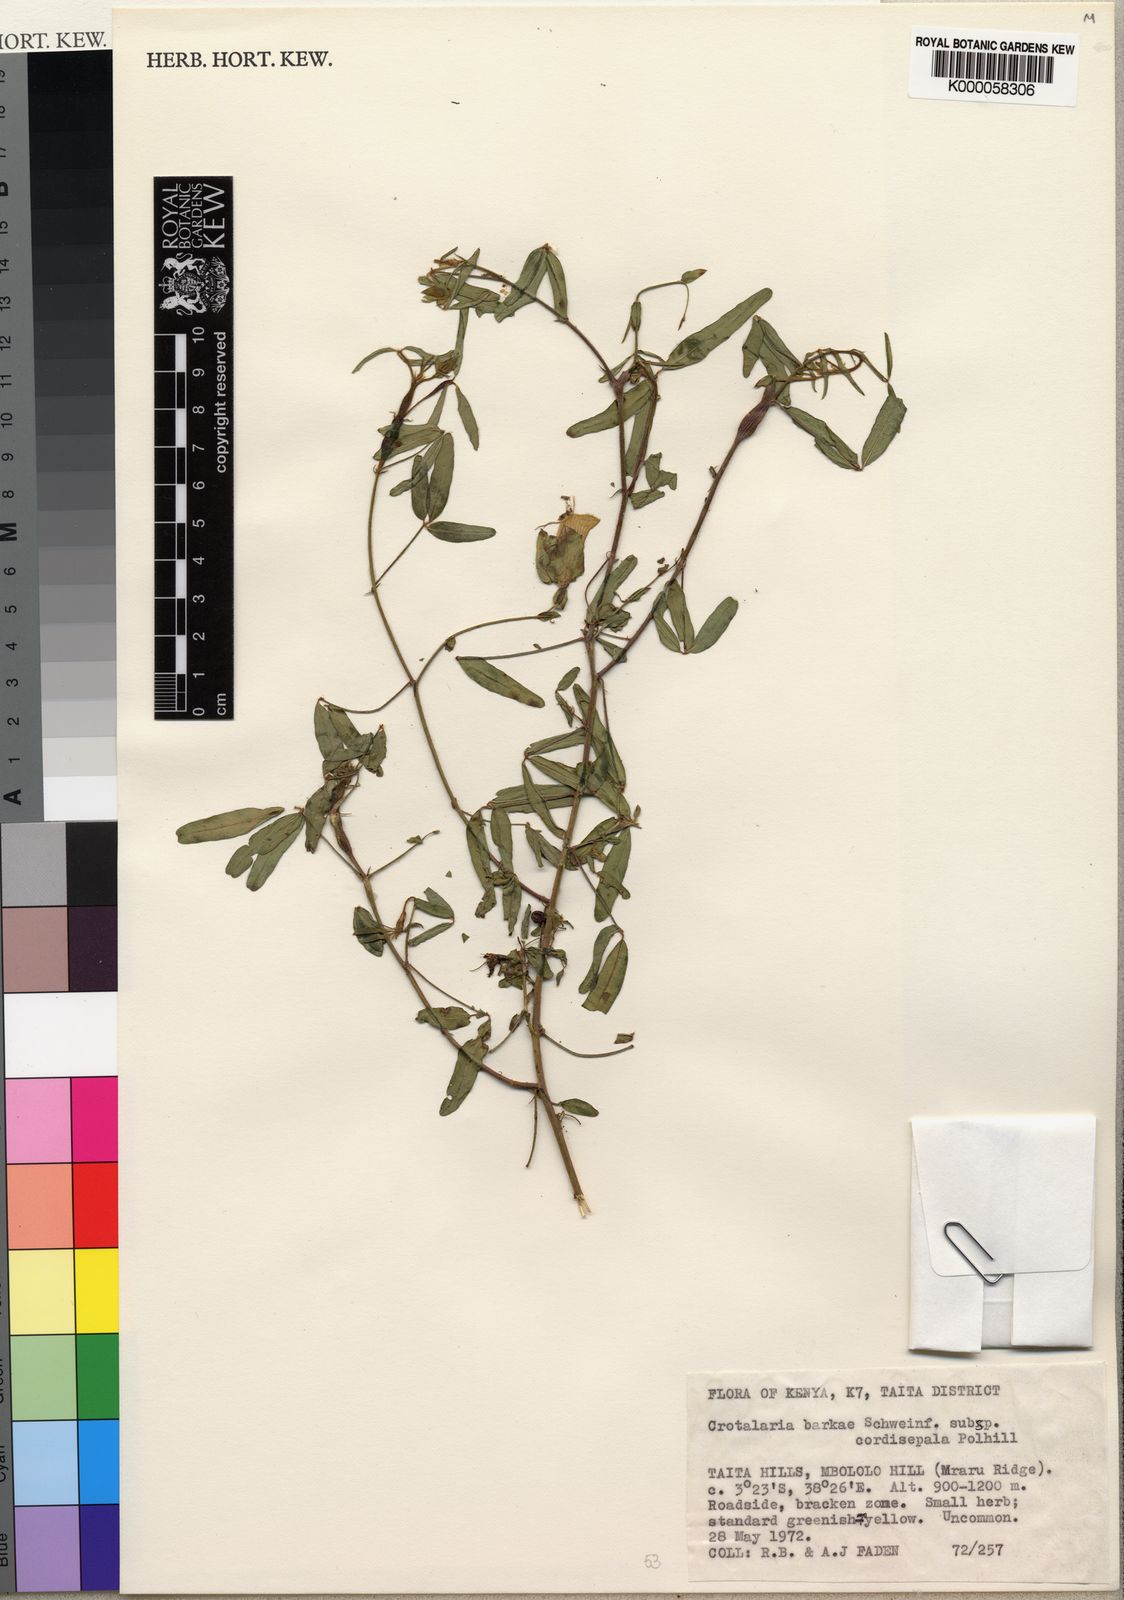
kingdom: Plantae
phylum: Tracheophyta
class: Magnoliopsida
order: Fabales
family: Fabaceae
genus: Crotalaria
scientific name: Crotalaria barkae
